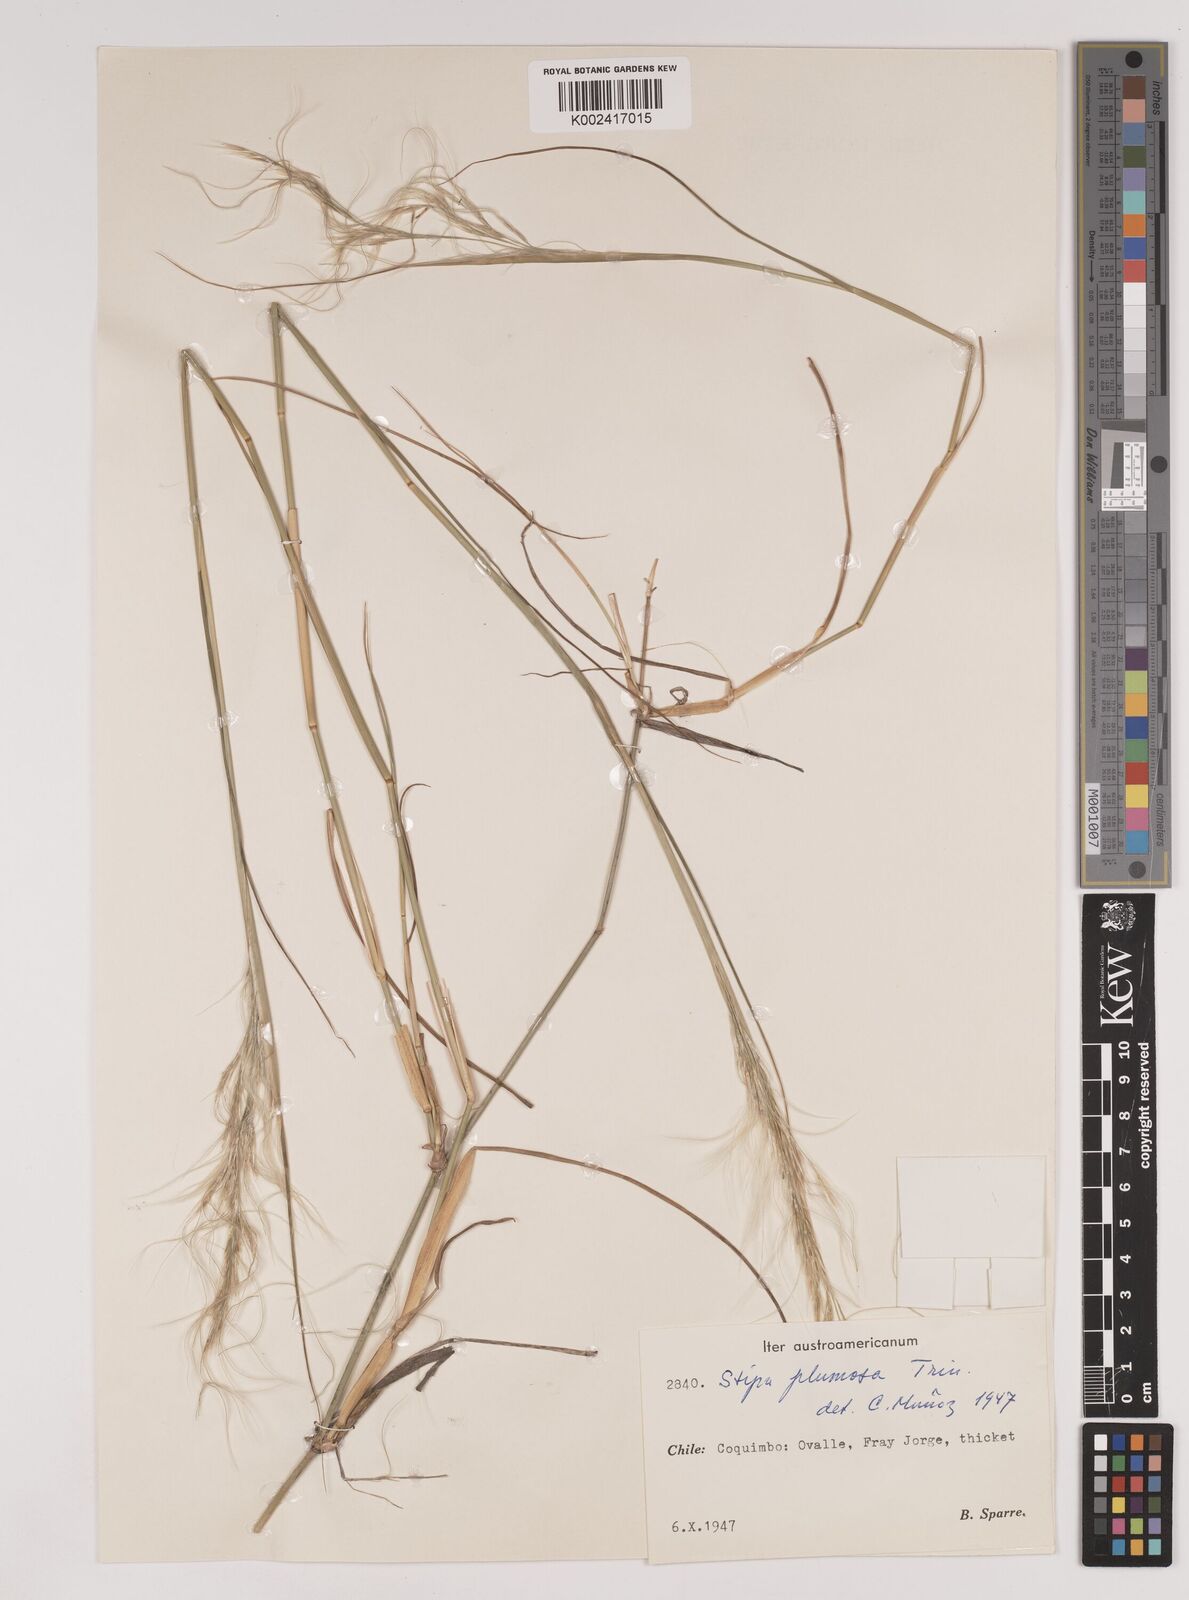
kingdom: Plantae
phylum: Tracheophyta
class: Liliopsida
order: Poales
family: Poaceae
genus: Stipa
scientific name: Stipa plumosa
